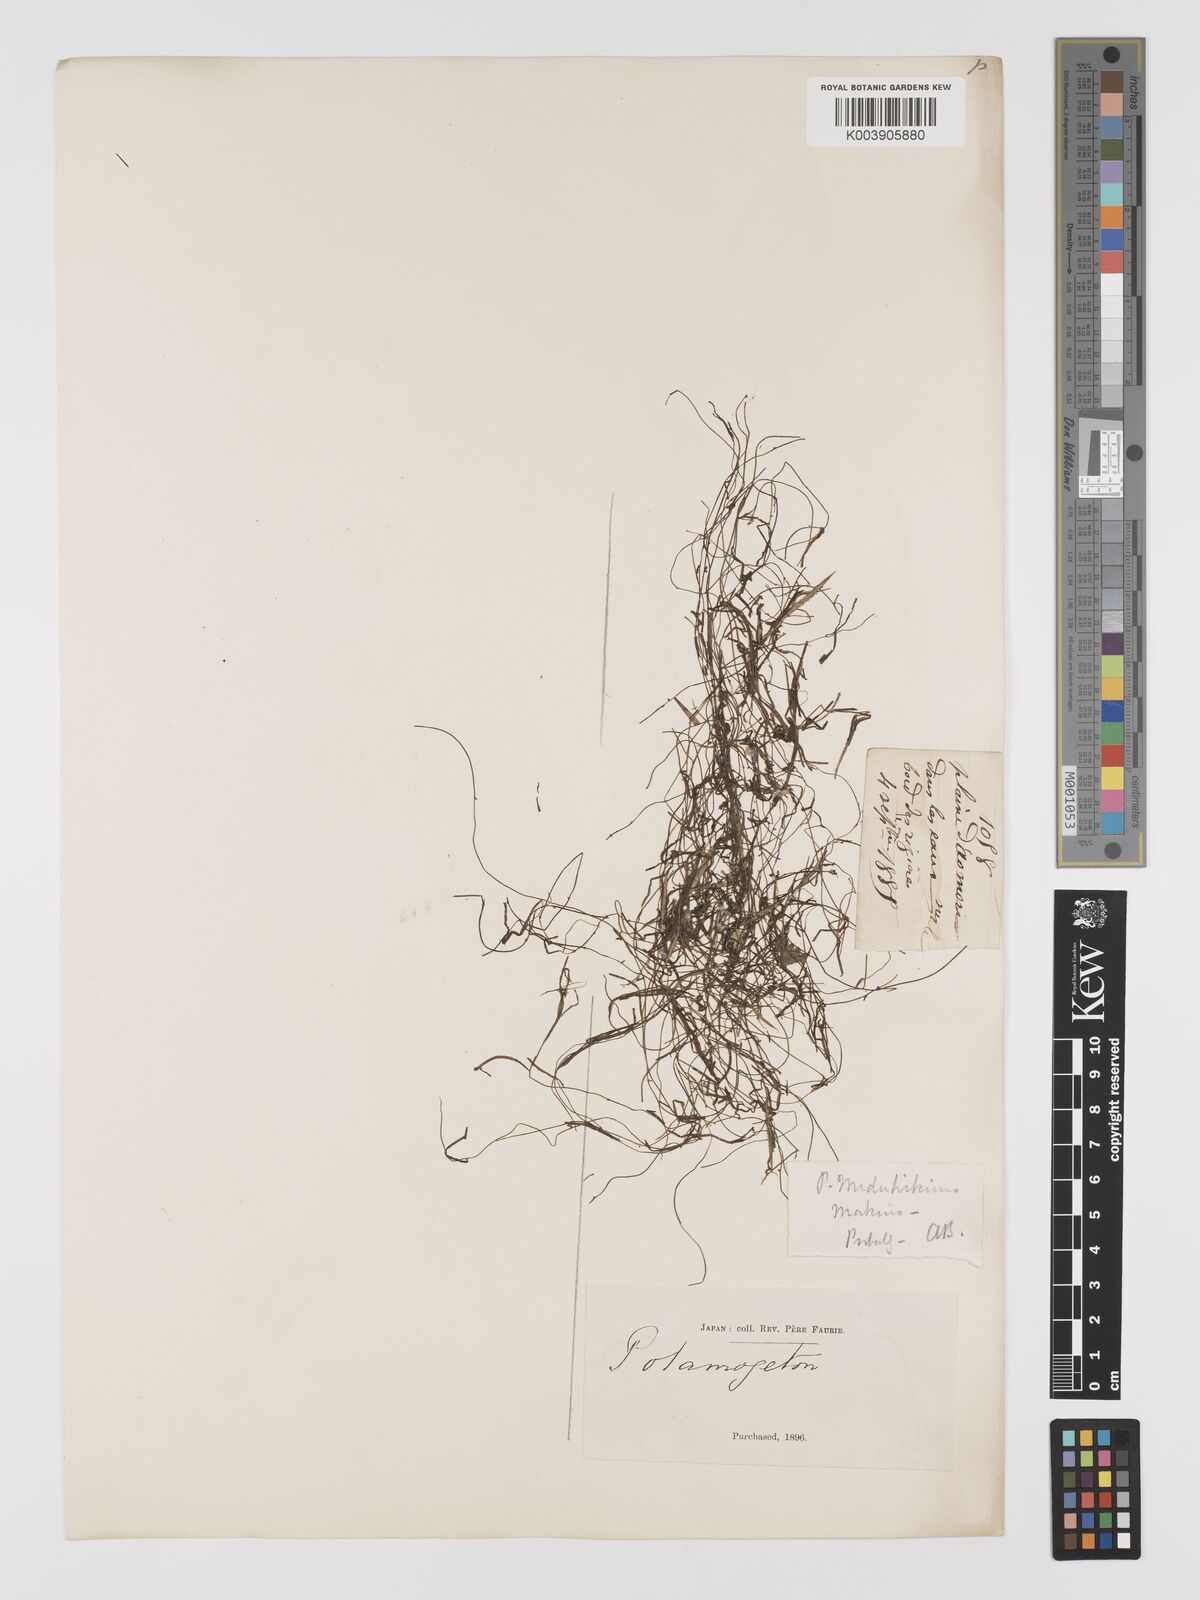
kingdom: Plantae
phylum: Tracheophyta
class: Liliopsida
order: Alismatales
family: Potamogetonaceae
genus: Potamogeton
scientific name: Potamogeton octandrus
